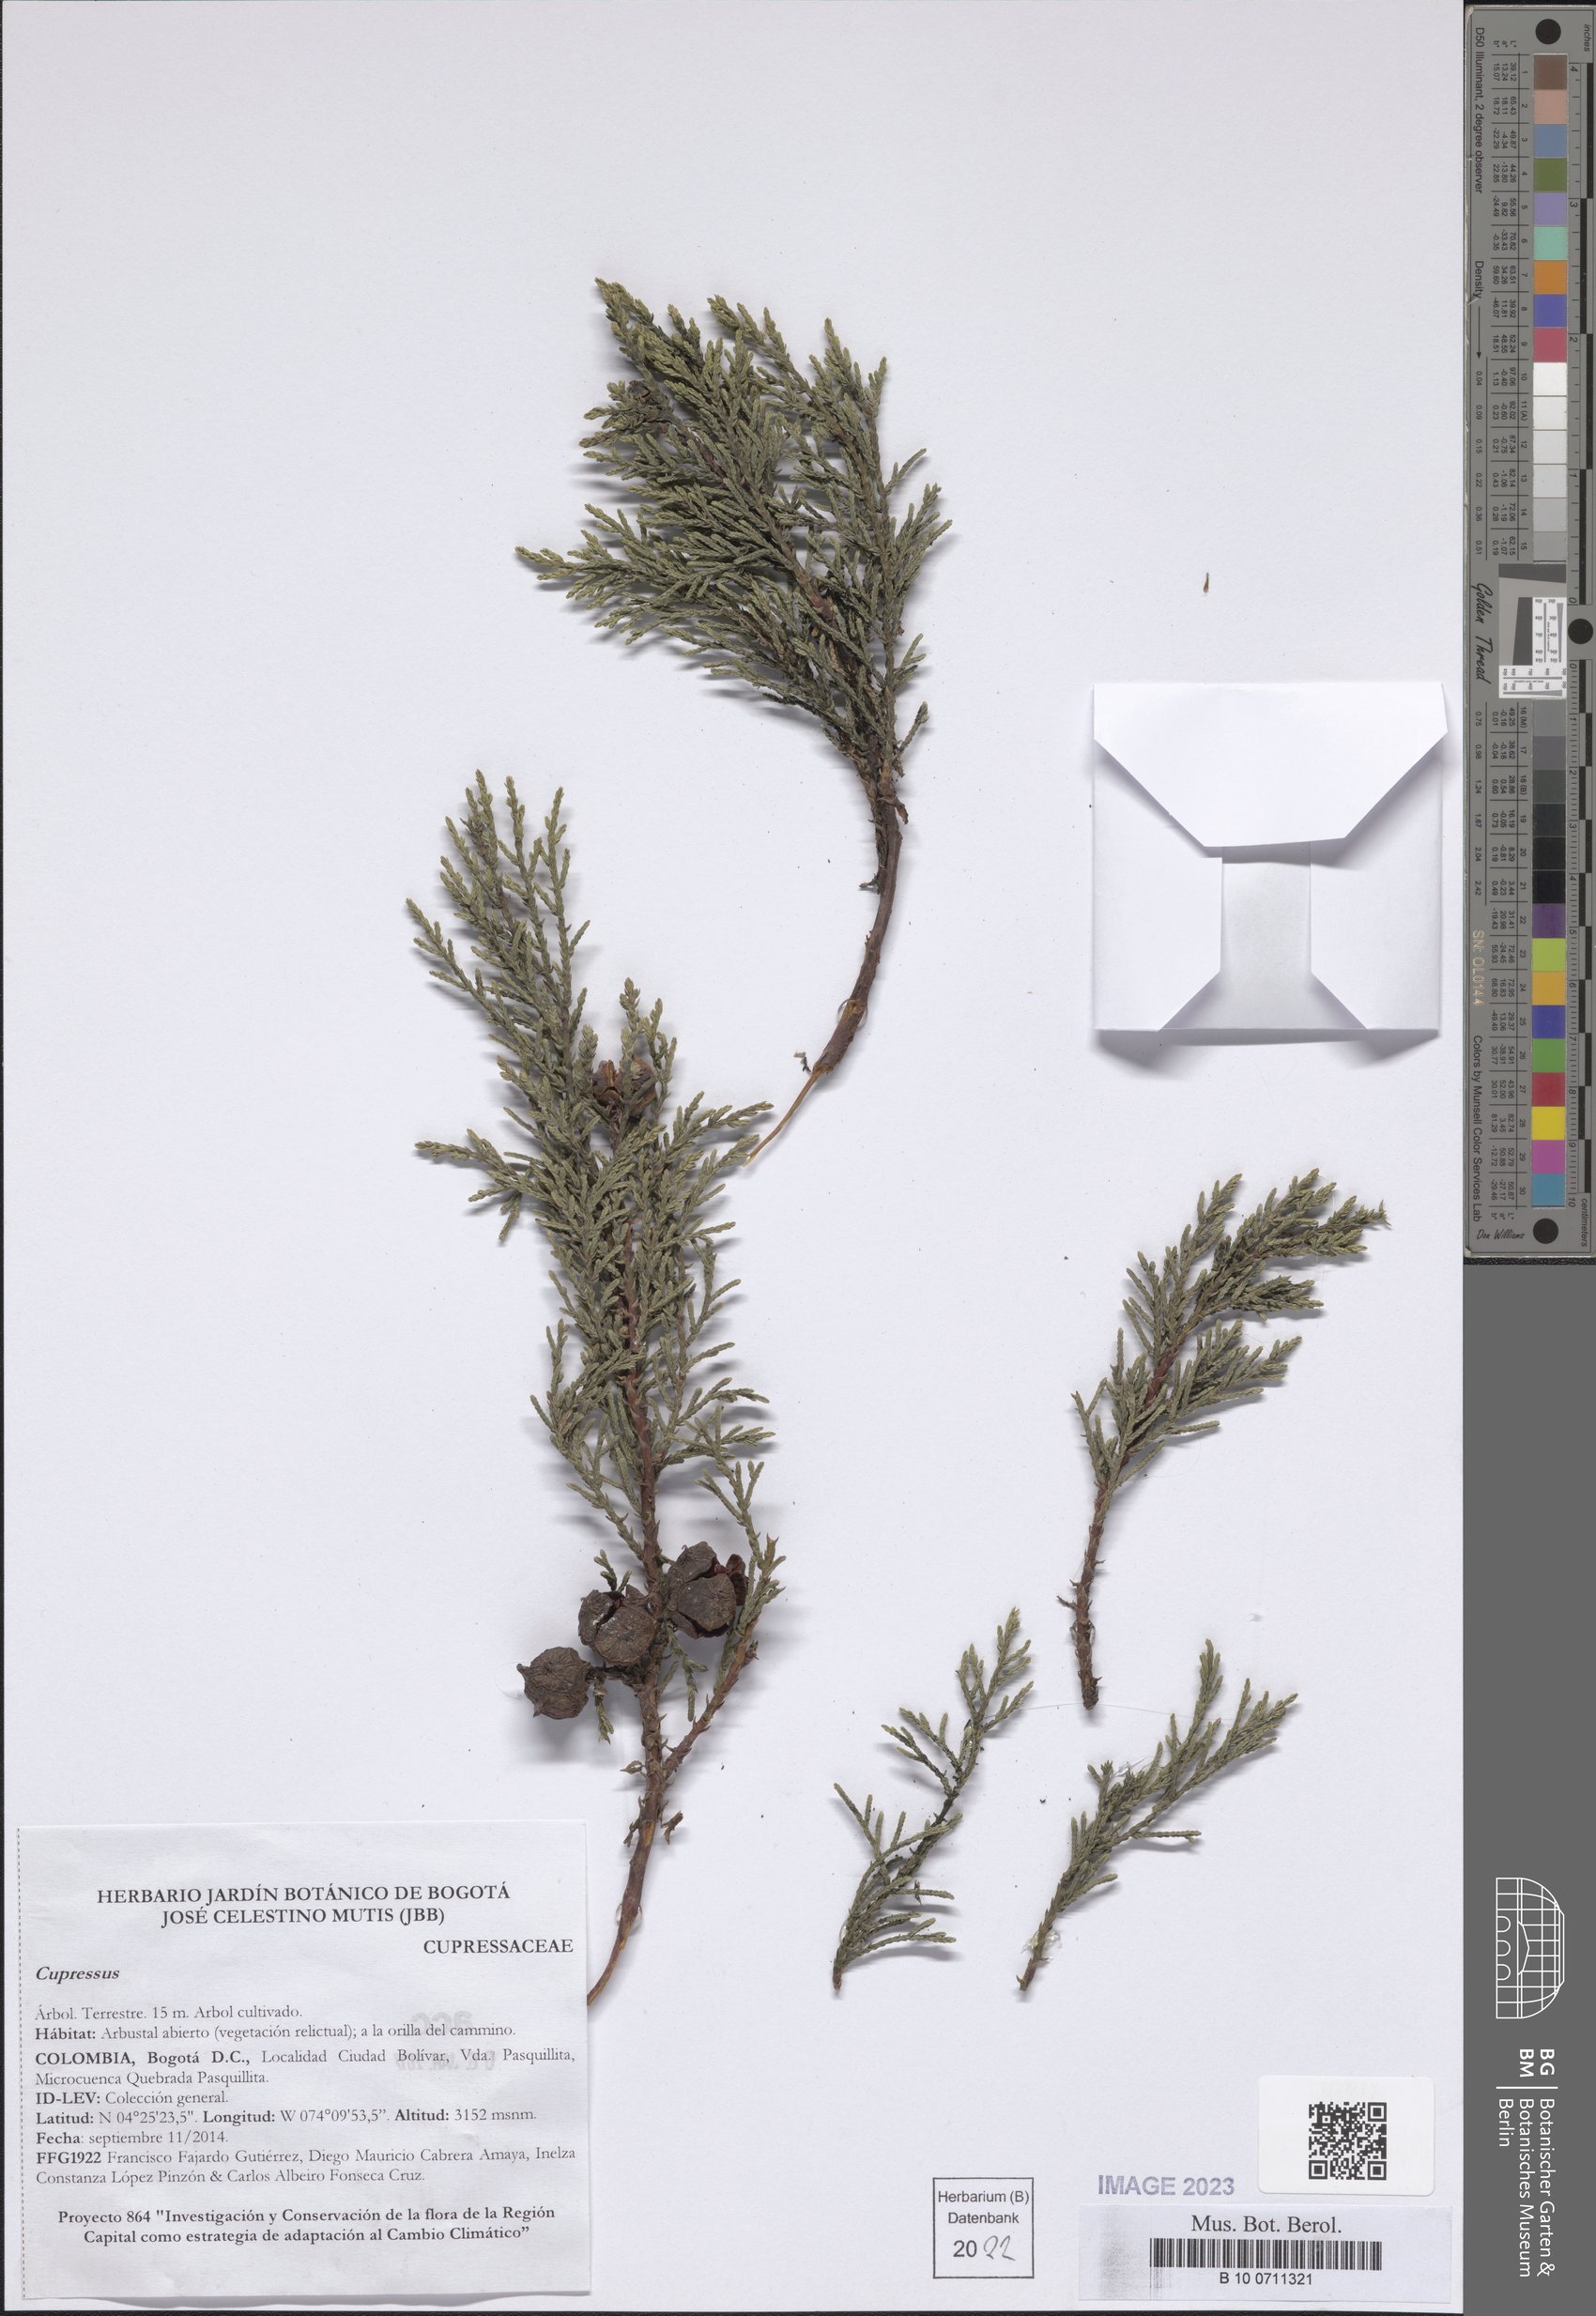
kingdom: Plantae
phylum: Tracheophyta
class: Pinopsida
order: Pinales
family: Cupressaceae
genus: Cupressus
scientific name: Cupressus
